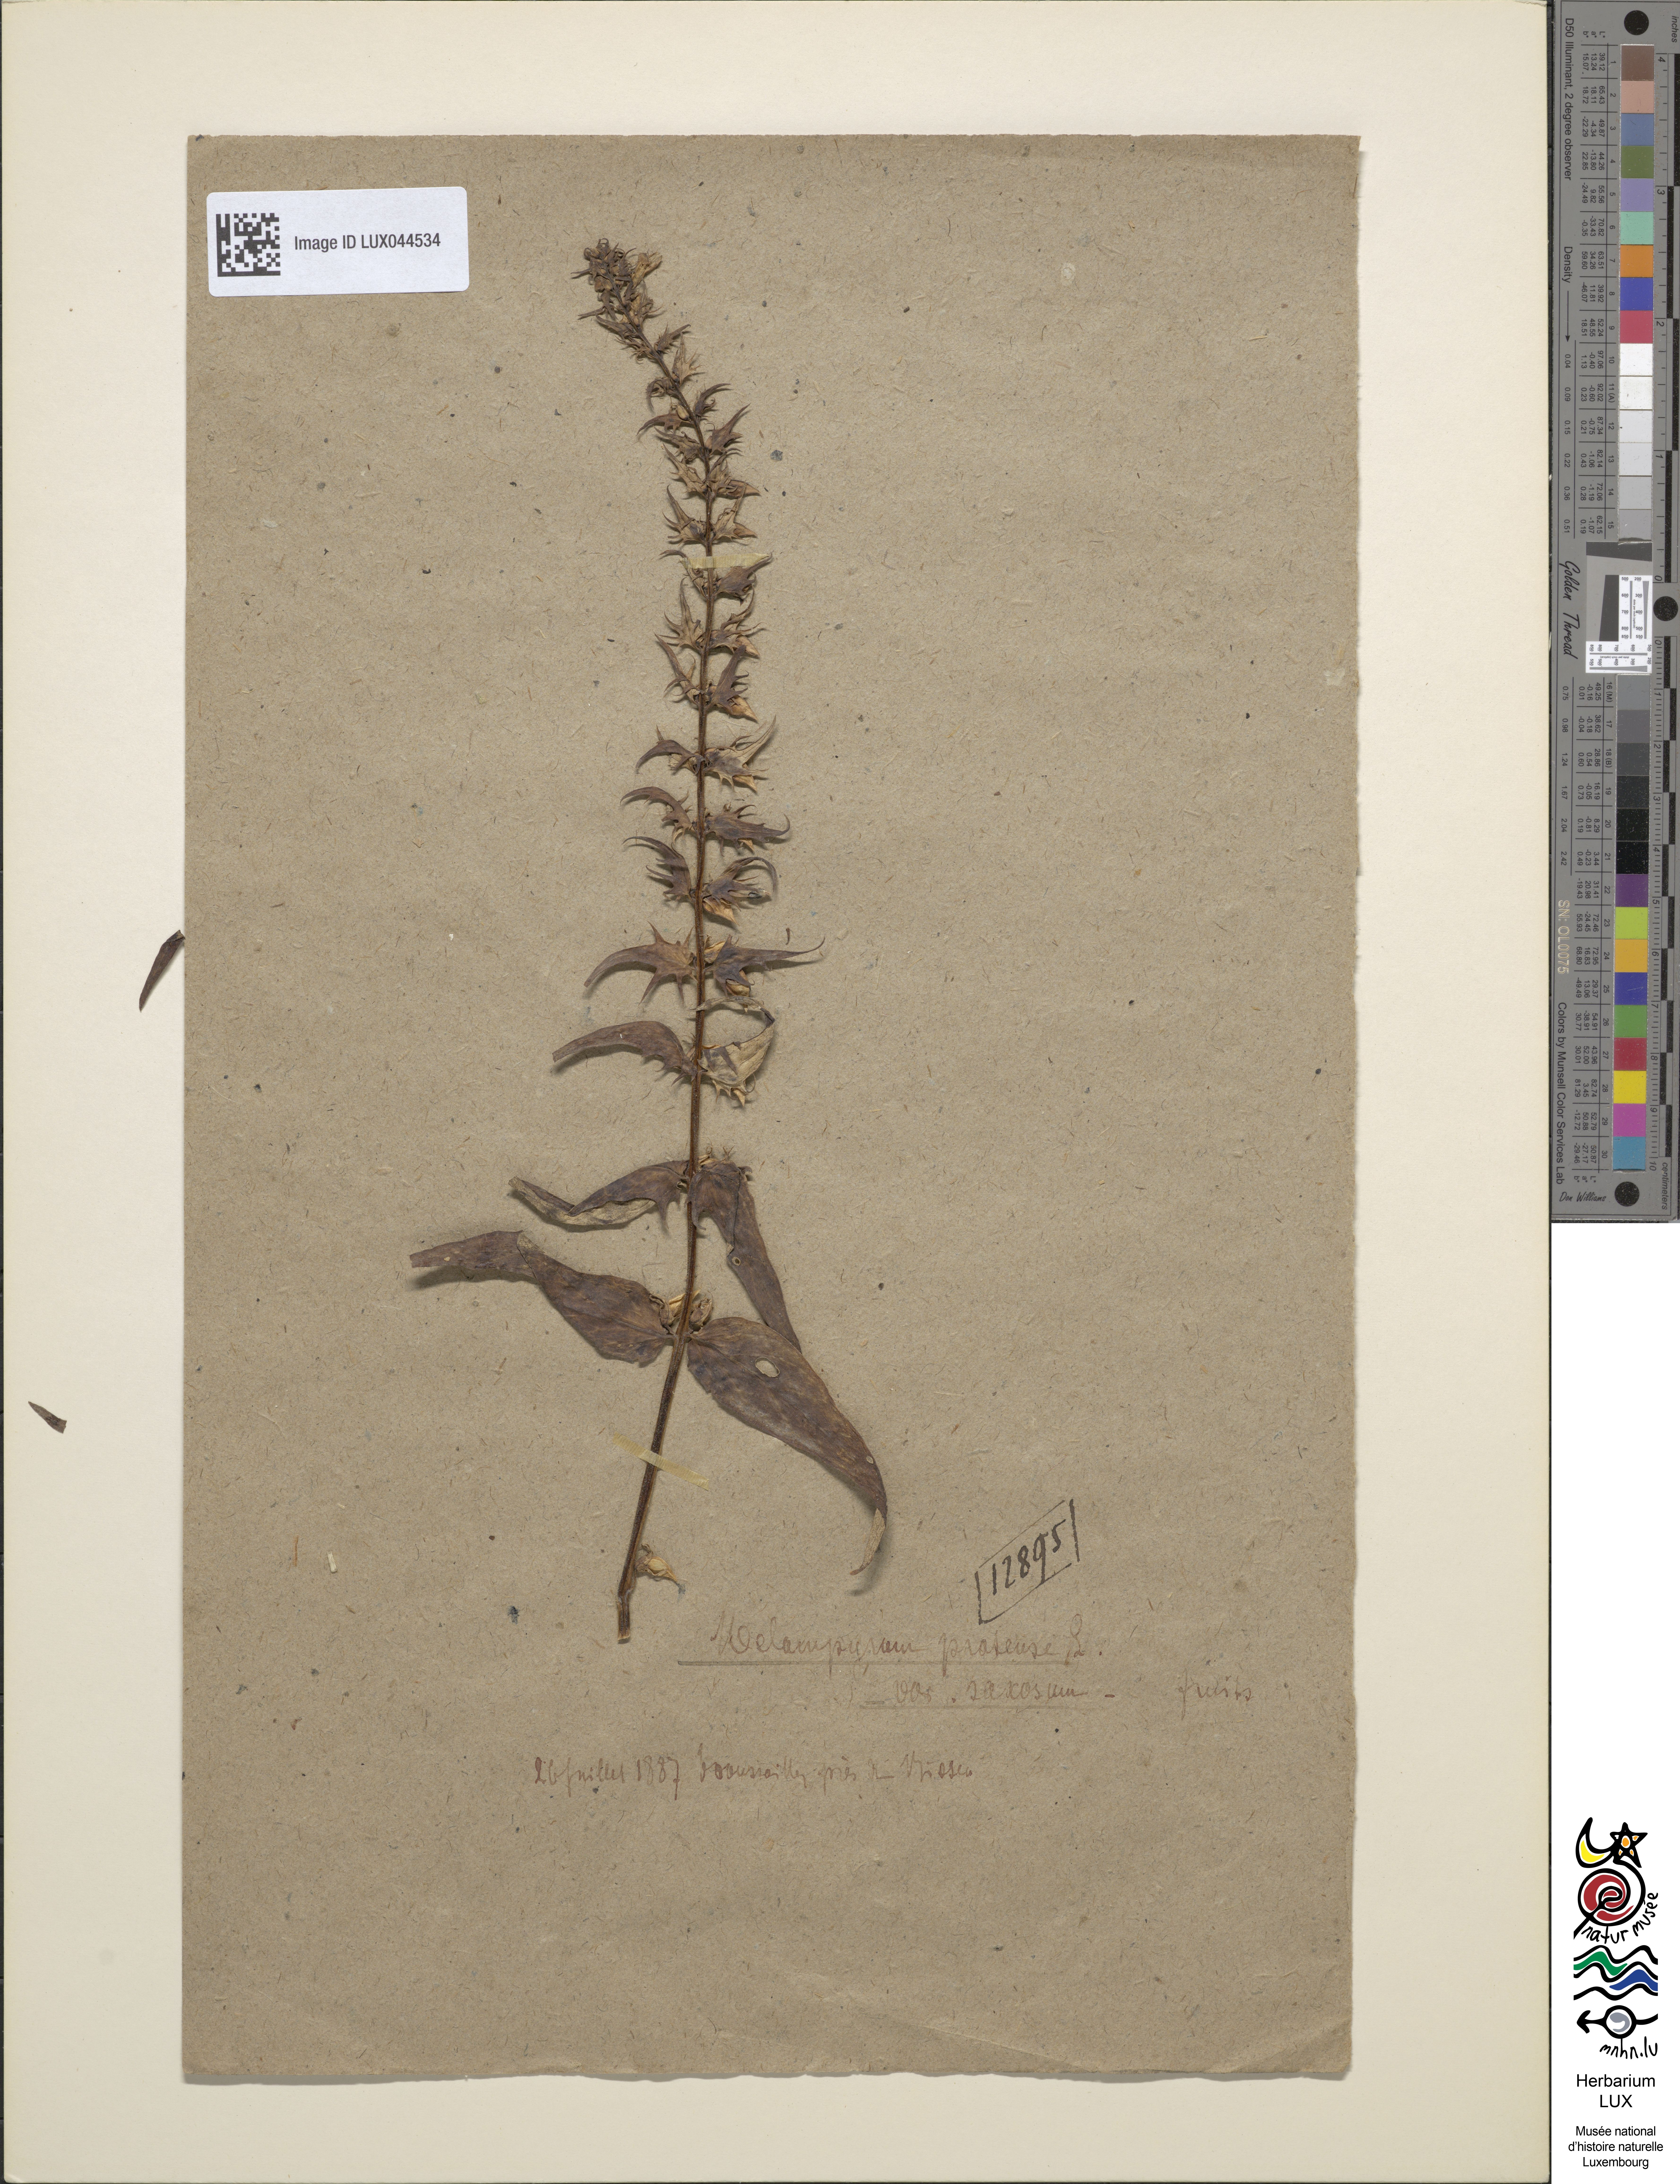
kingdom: Plantae
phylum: Tracheophyta
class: Magnoliopsida
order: Lamiales
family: Orobanchaceae
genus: Melampyrum
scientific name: Melampyrum pratense
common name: Common cow-wheat
